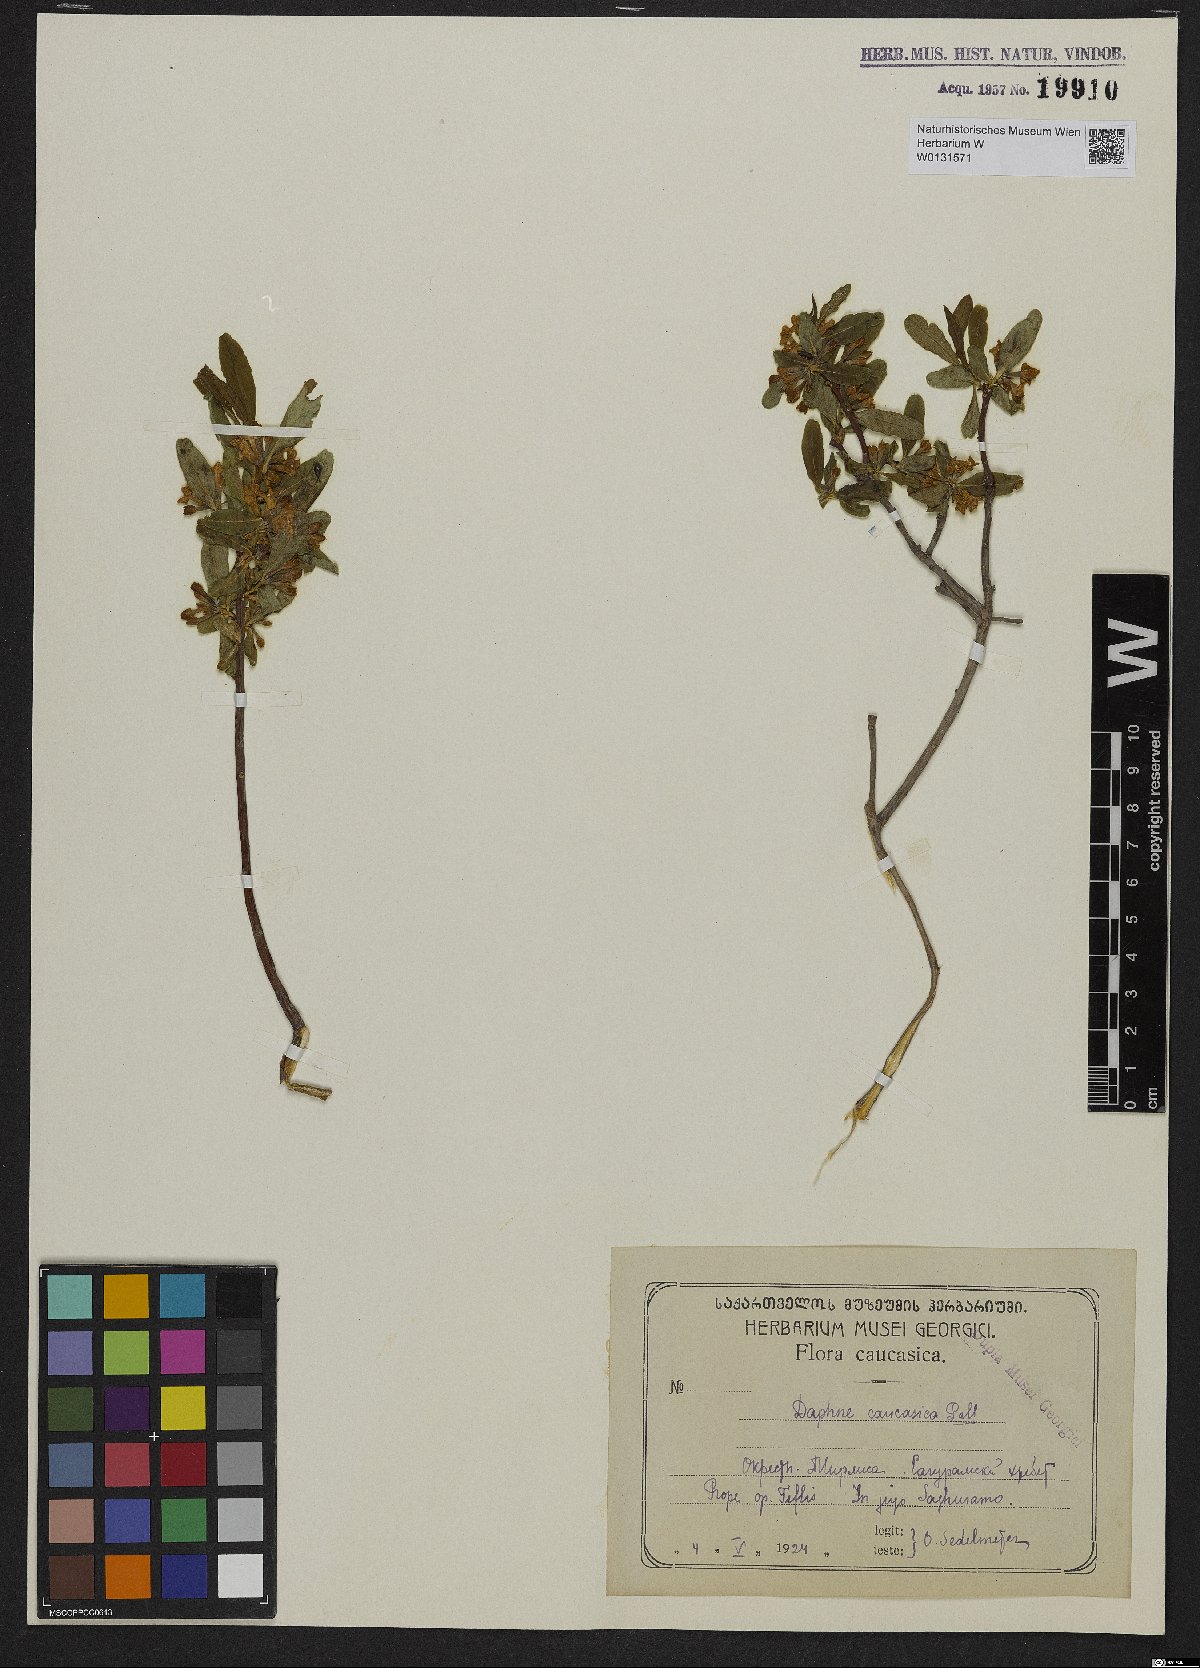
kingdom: Plantae
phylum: Tracheophyta
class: Magnoliopsida
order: Malvales
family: Thymelaeaceae
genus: Daphne
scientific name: Daphne caucasica
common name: Caucasian daphne
